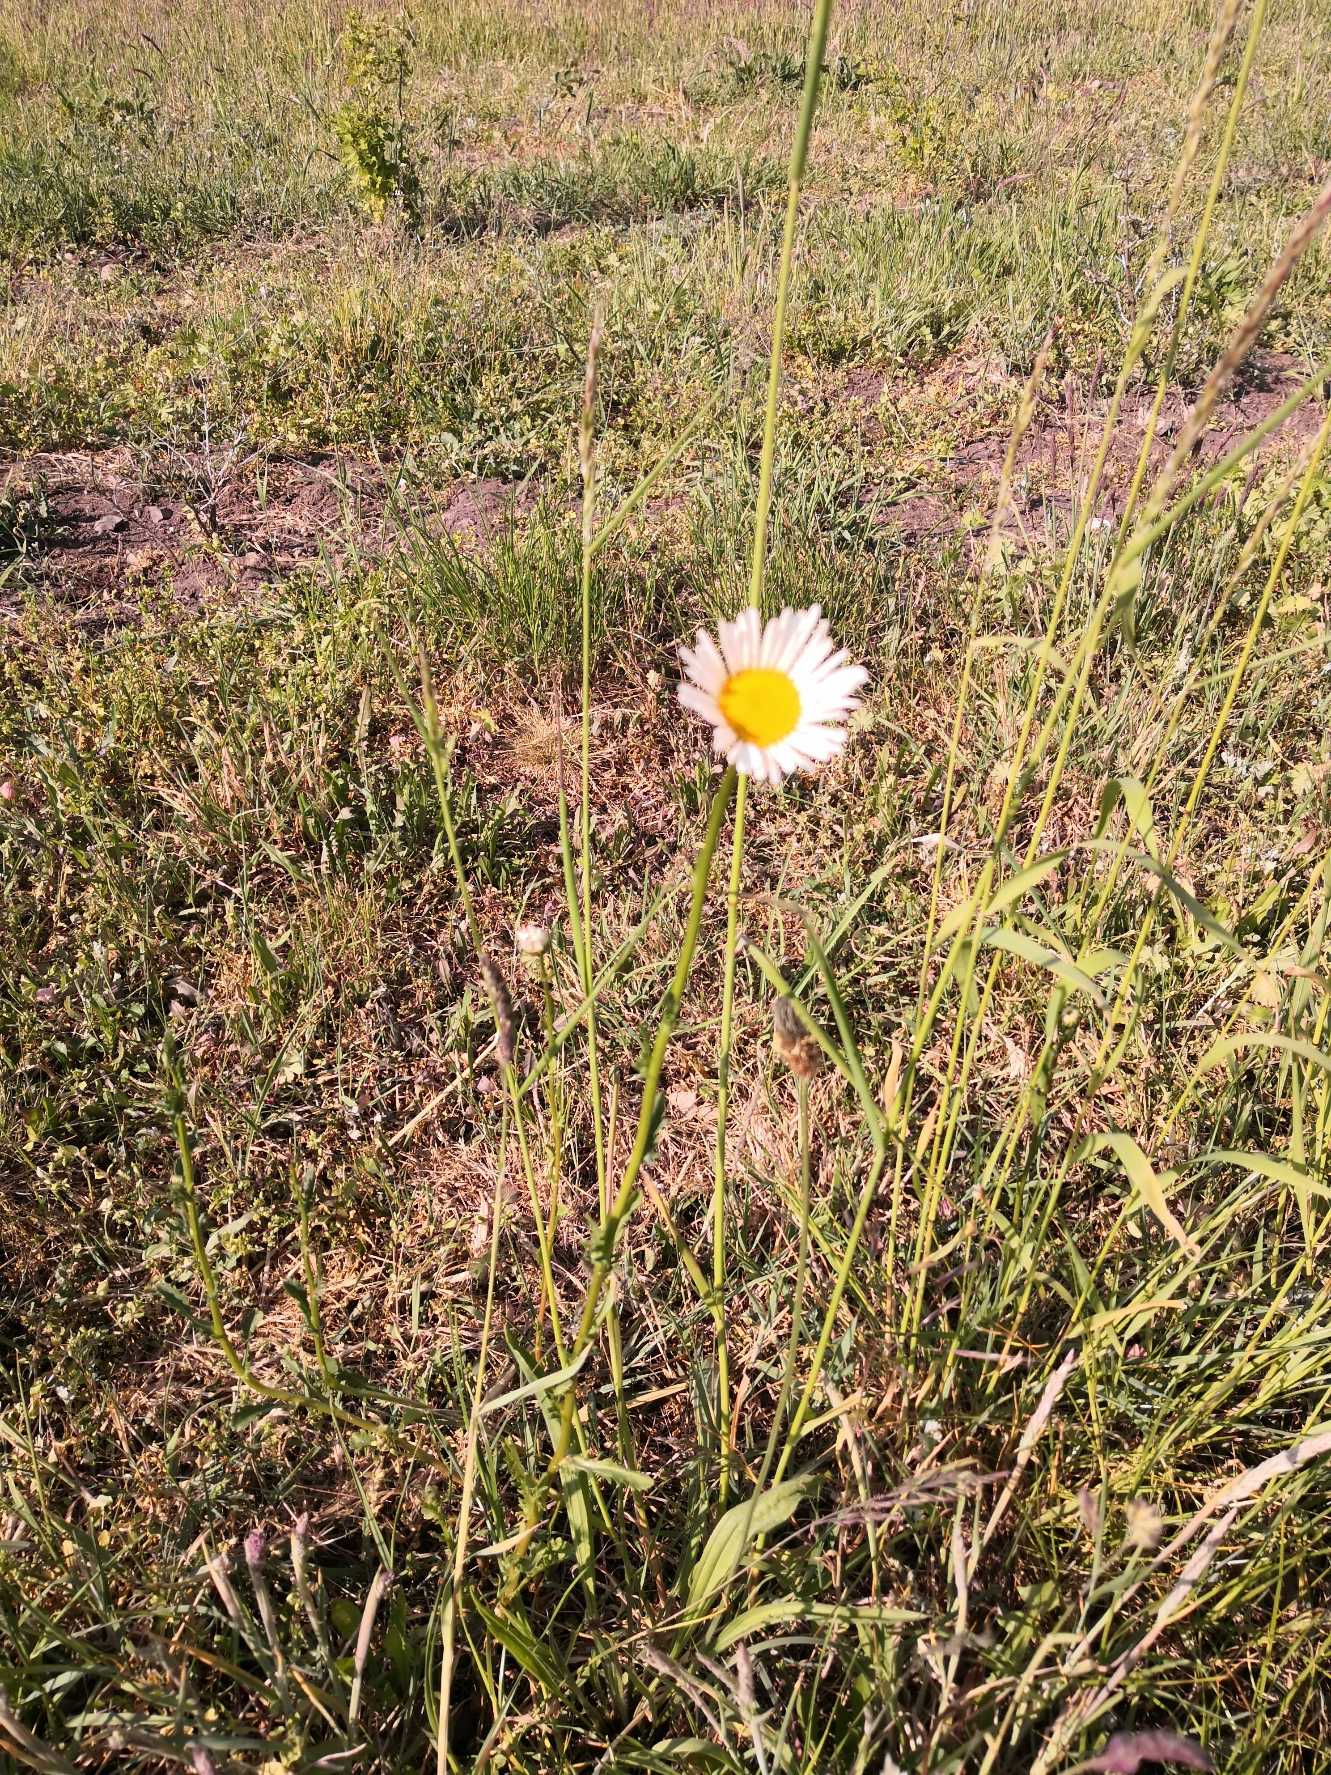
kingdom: Plantae
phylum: Tracheophyta
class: Magnoliopsida
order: Asterales
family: Asteraceae
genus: Leucanthemum
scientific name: Leucanthemum vulgare
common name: Hvid okseøje
